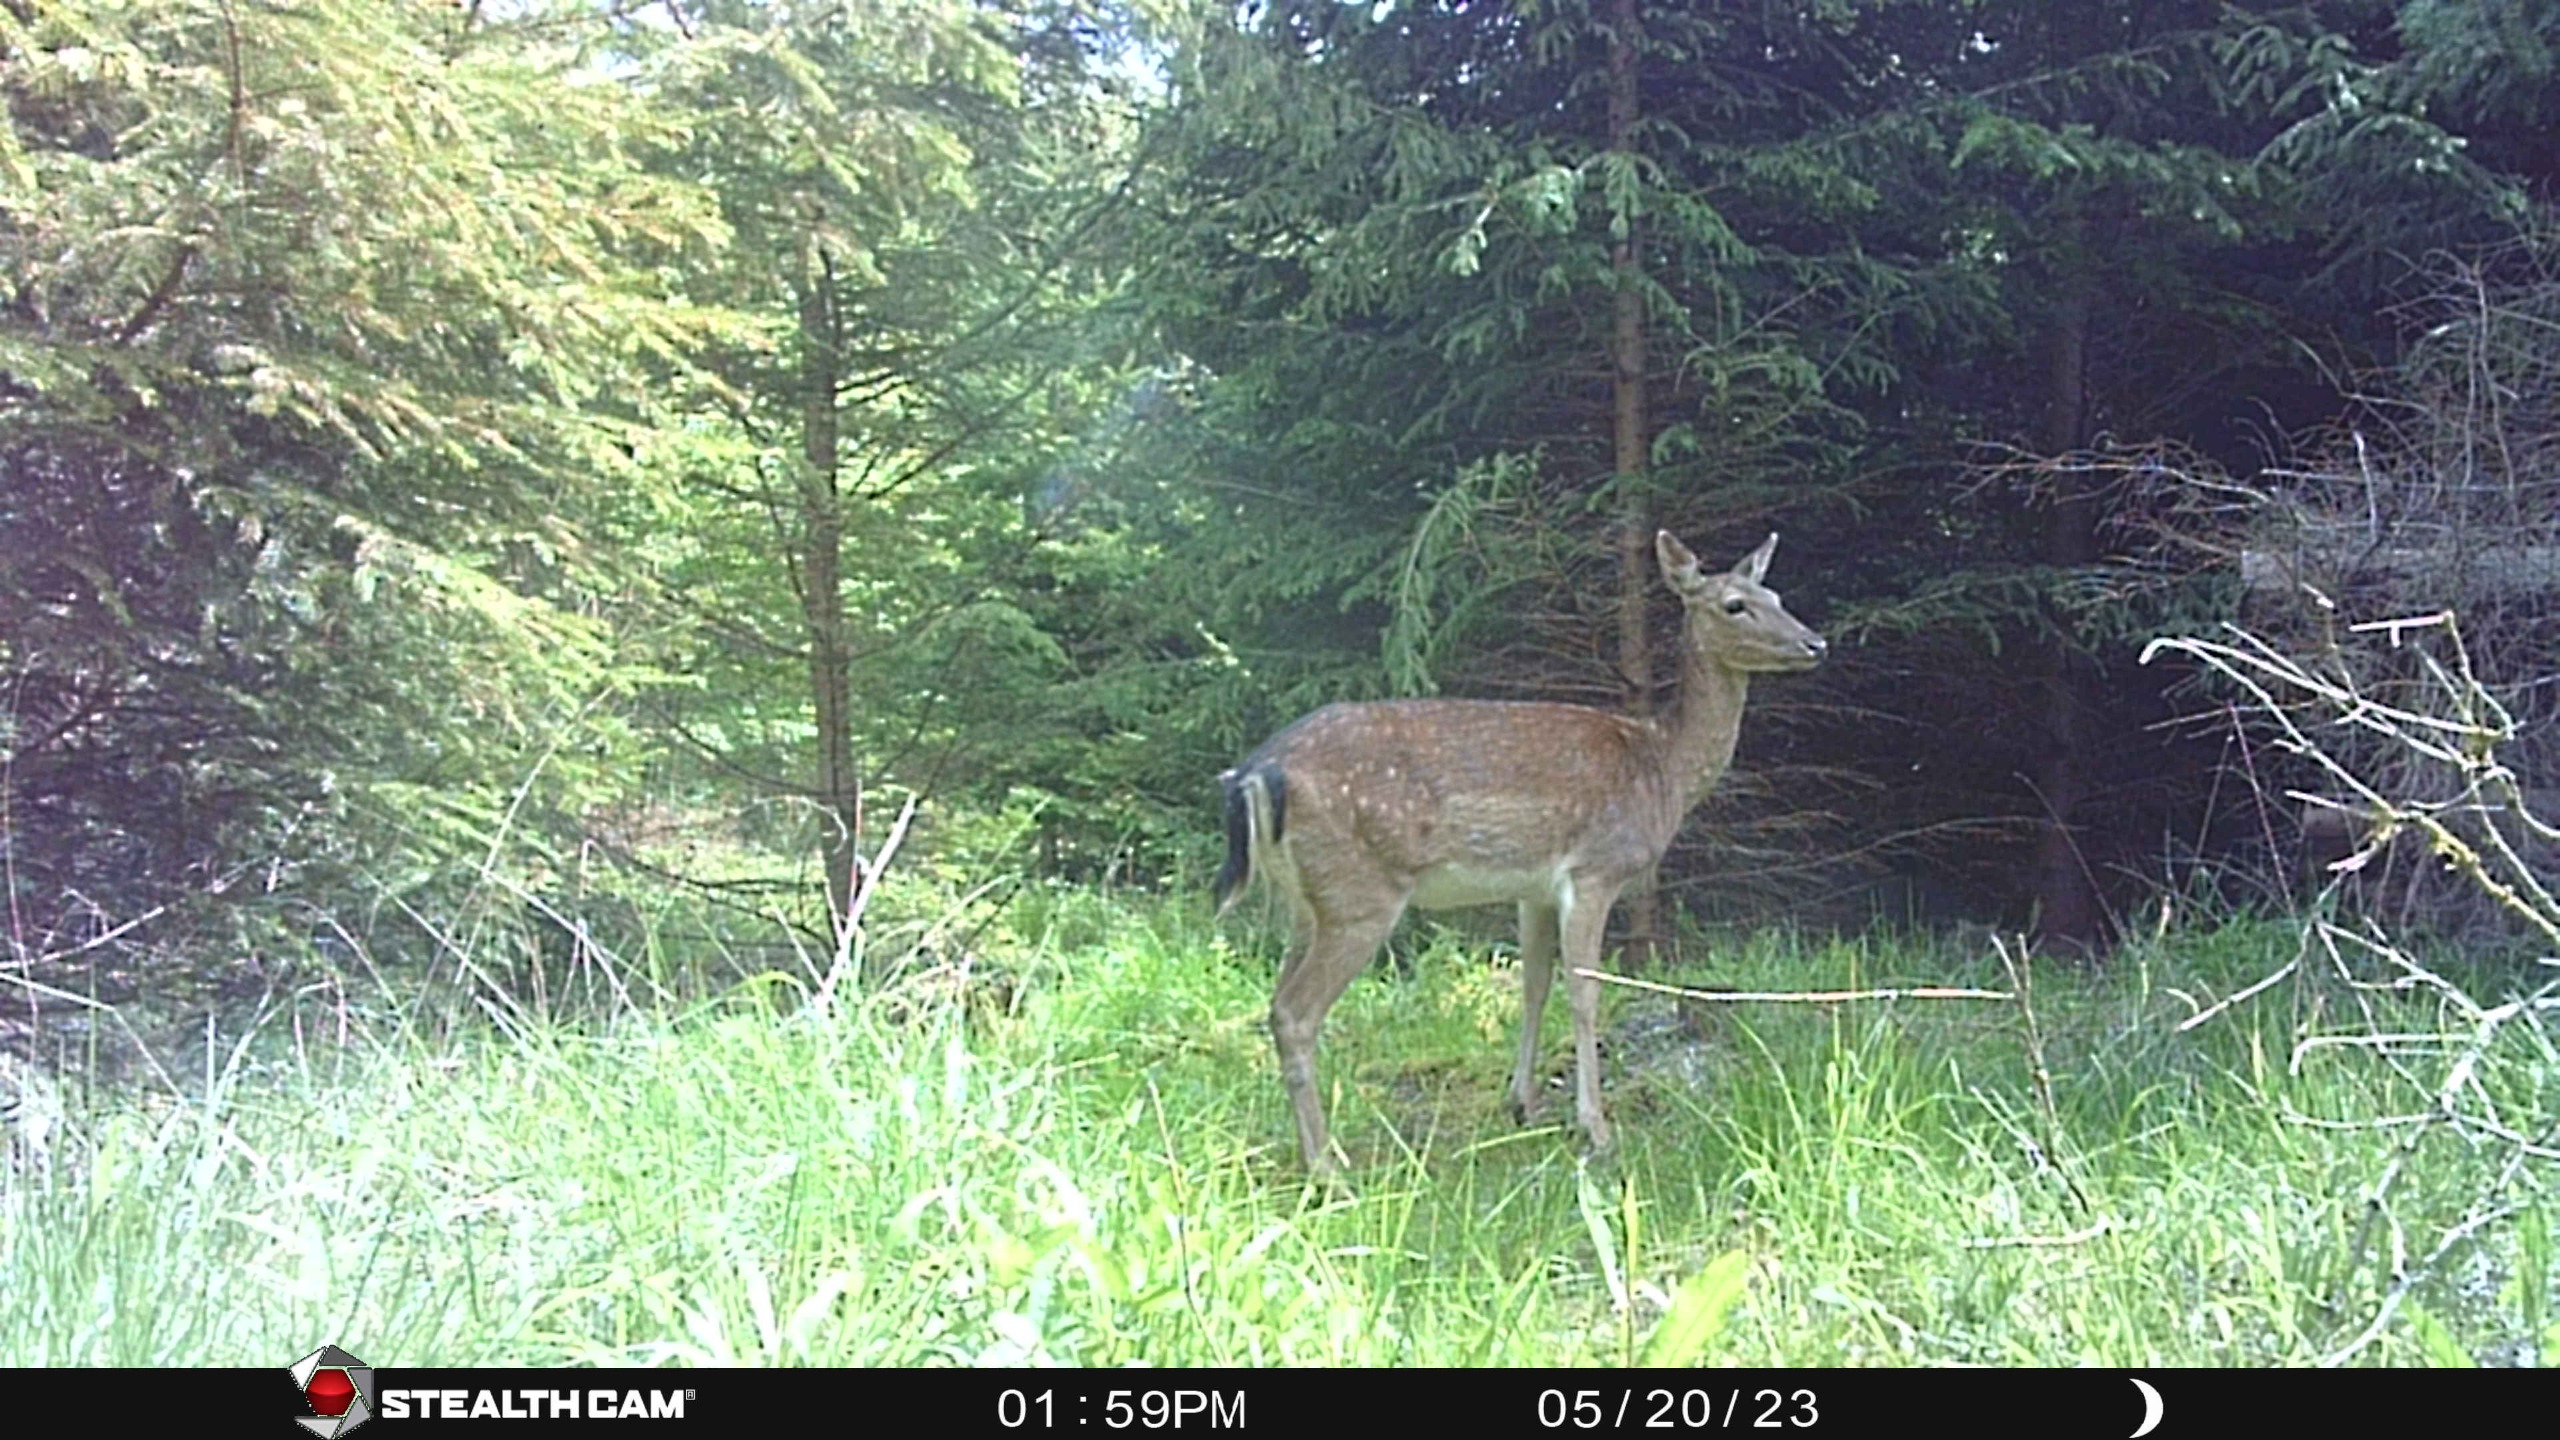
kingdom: Animalia
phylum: Chordata
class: Mammalia
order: Artiodactyla
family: Cervidae
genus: Dama
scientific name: Dama dama
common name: Dådyr
